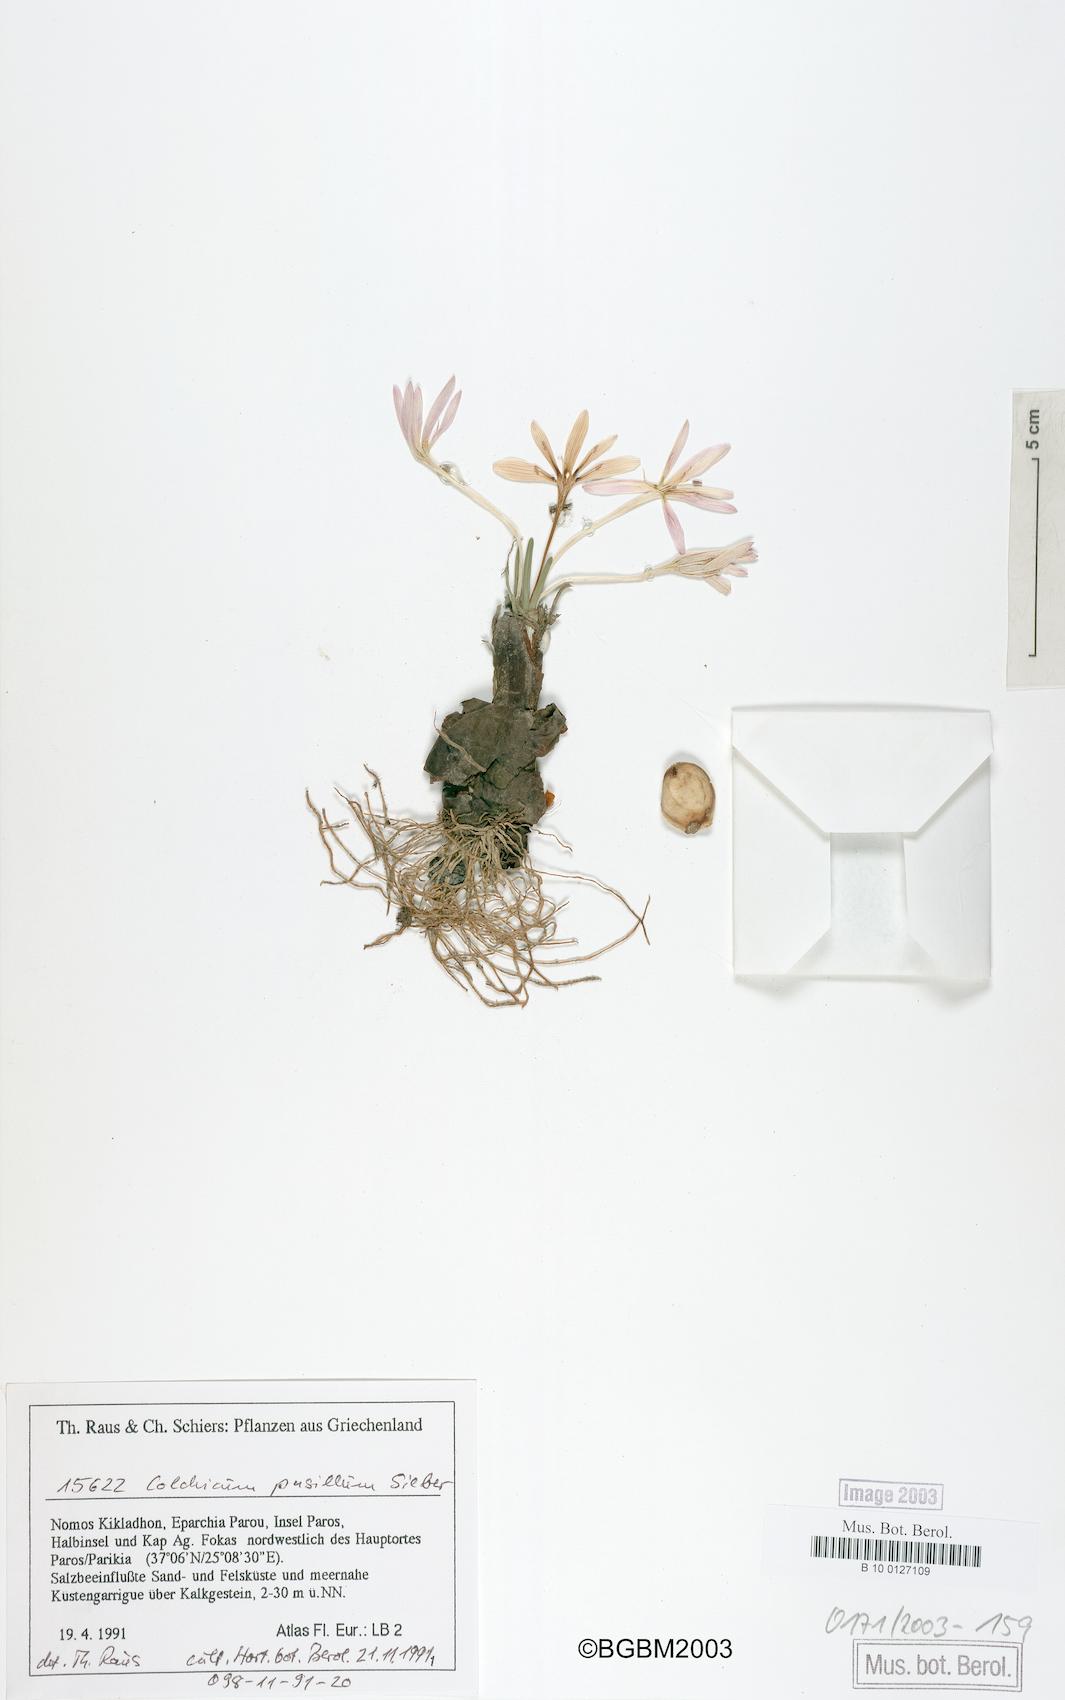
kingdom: Plantae
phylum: Tracheophyta
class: Liliopsida
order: Liliales
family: Colchicaceae
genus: Colchicum
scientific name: Colchicum pusillum
